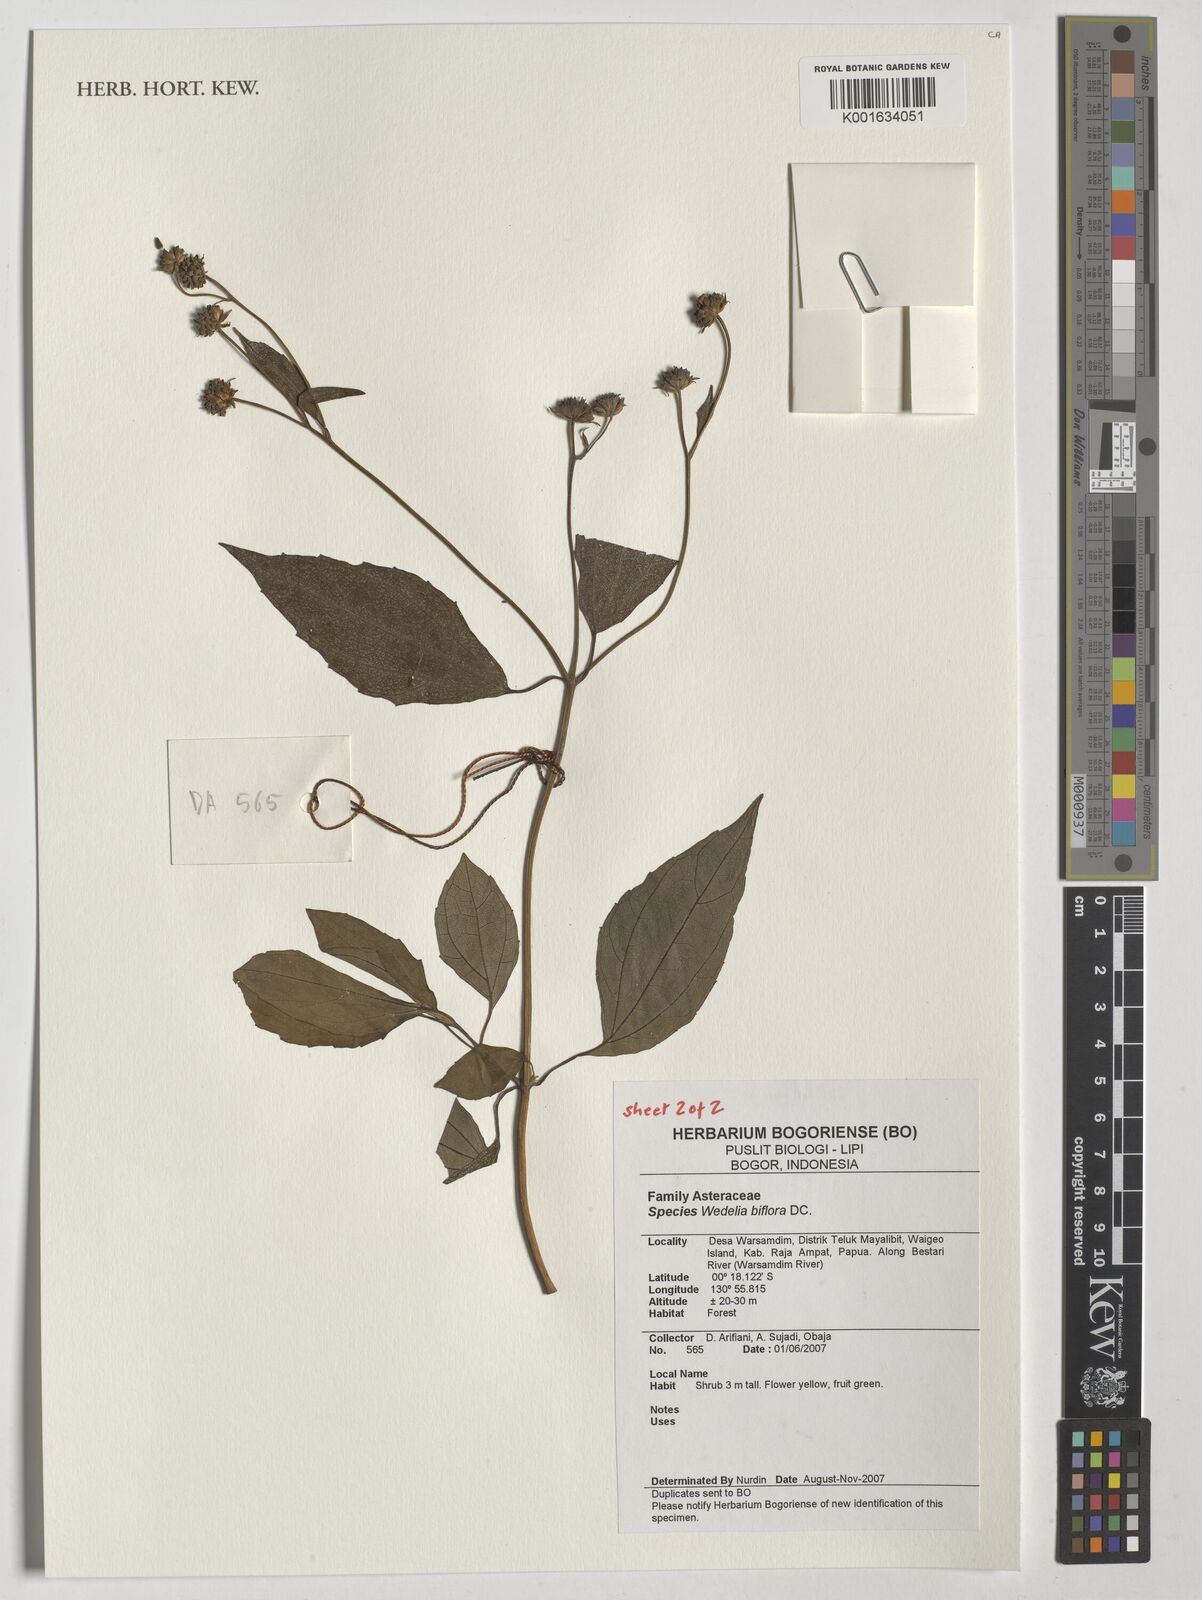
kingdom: Plantae
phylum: Tracheophyta
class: Magnoliopsida
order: Asterales
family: Asteraceae
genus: Wollastonia
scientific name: Wollastonia biflora
